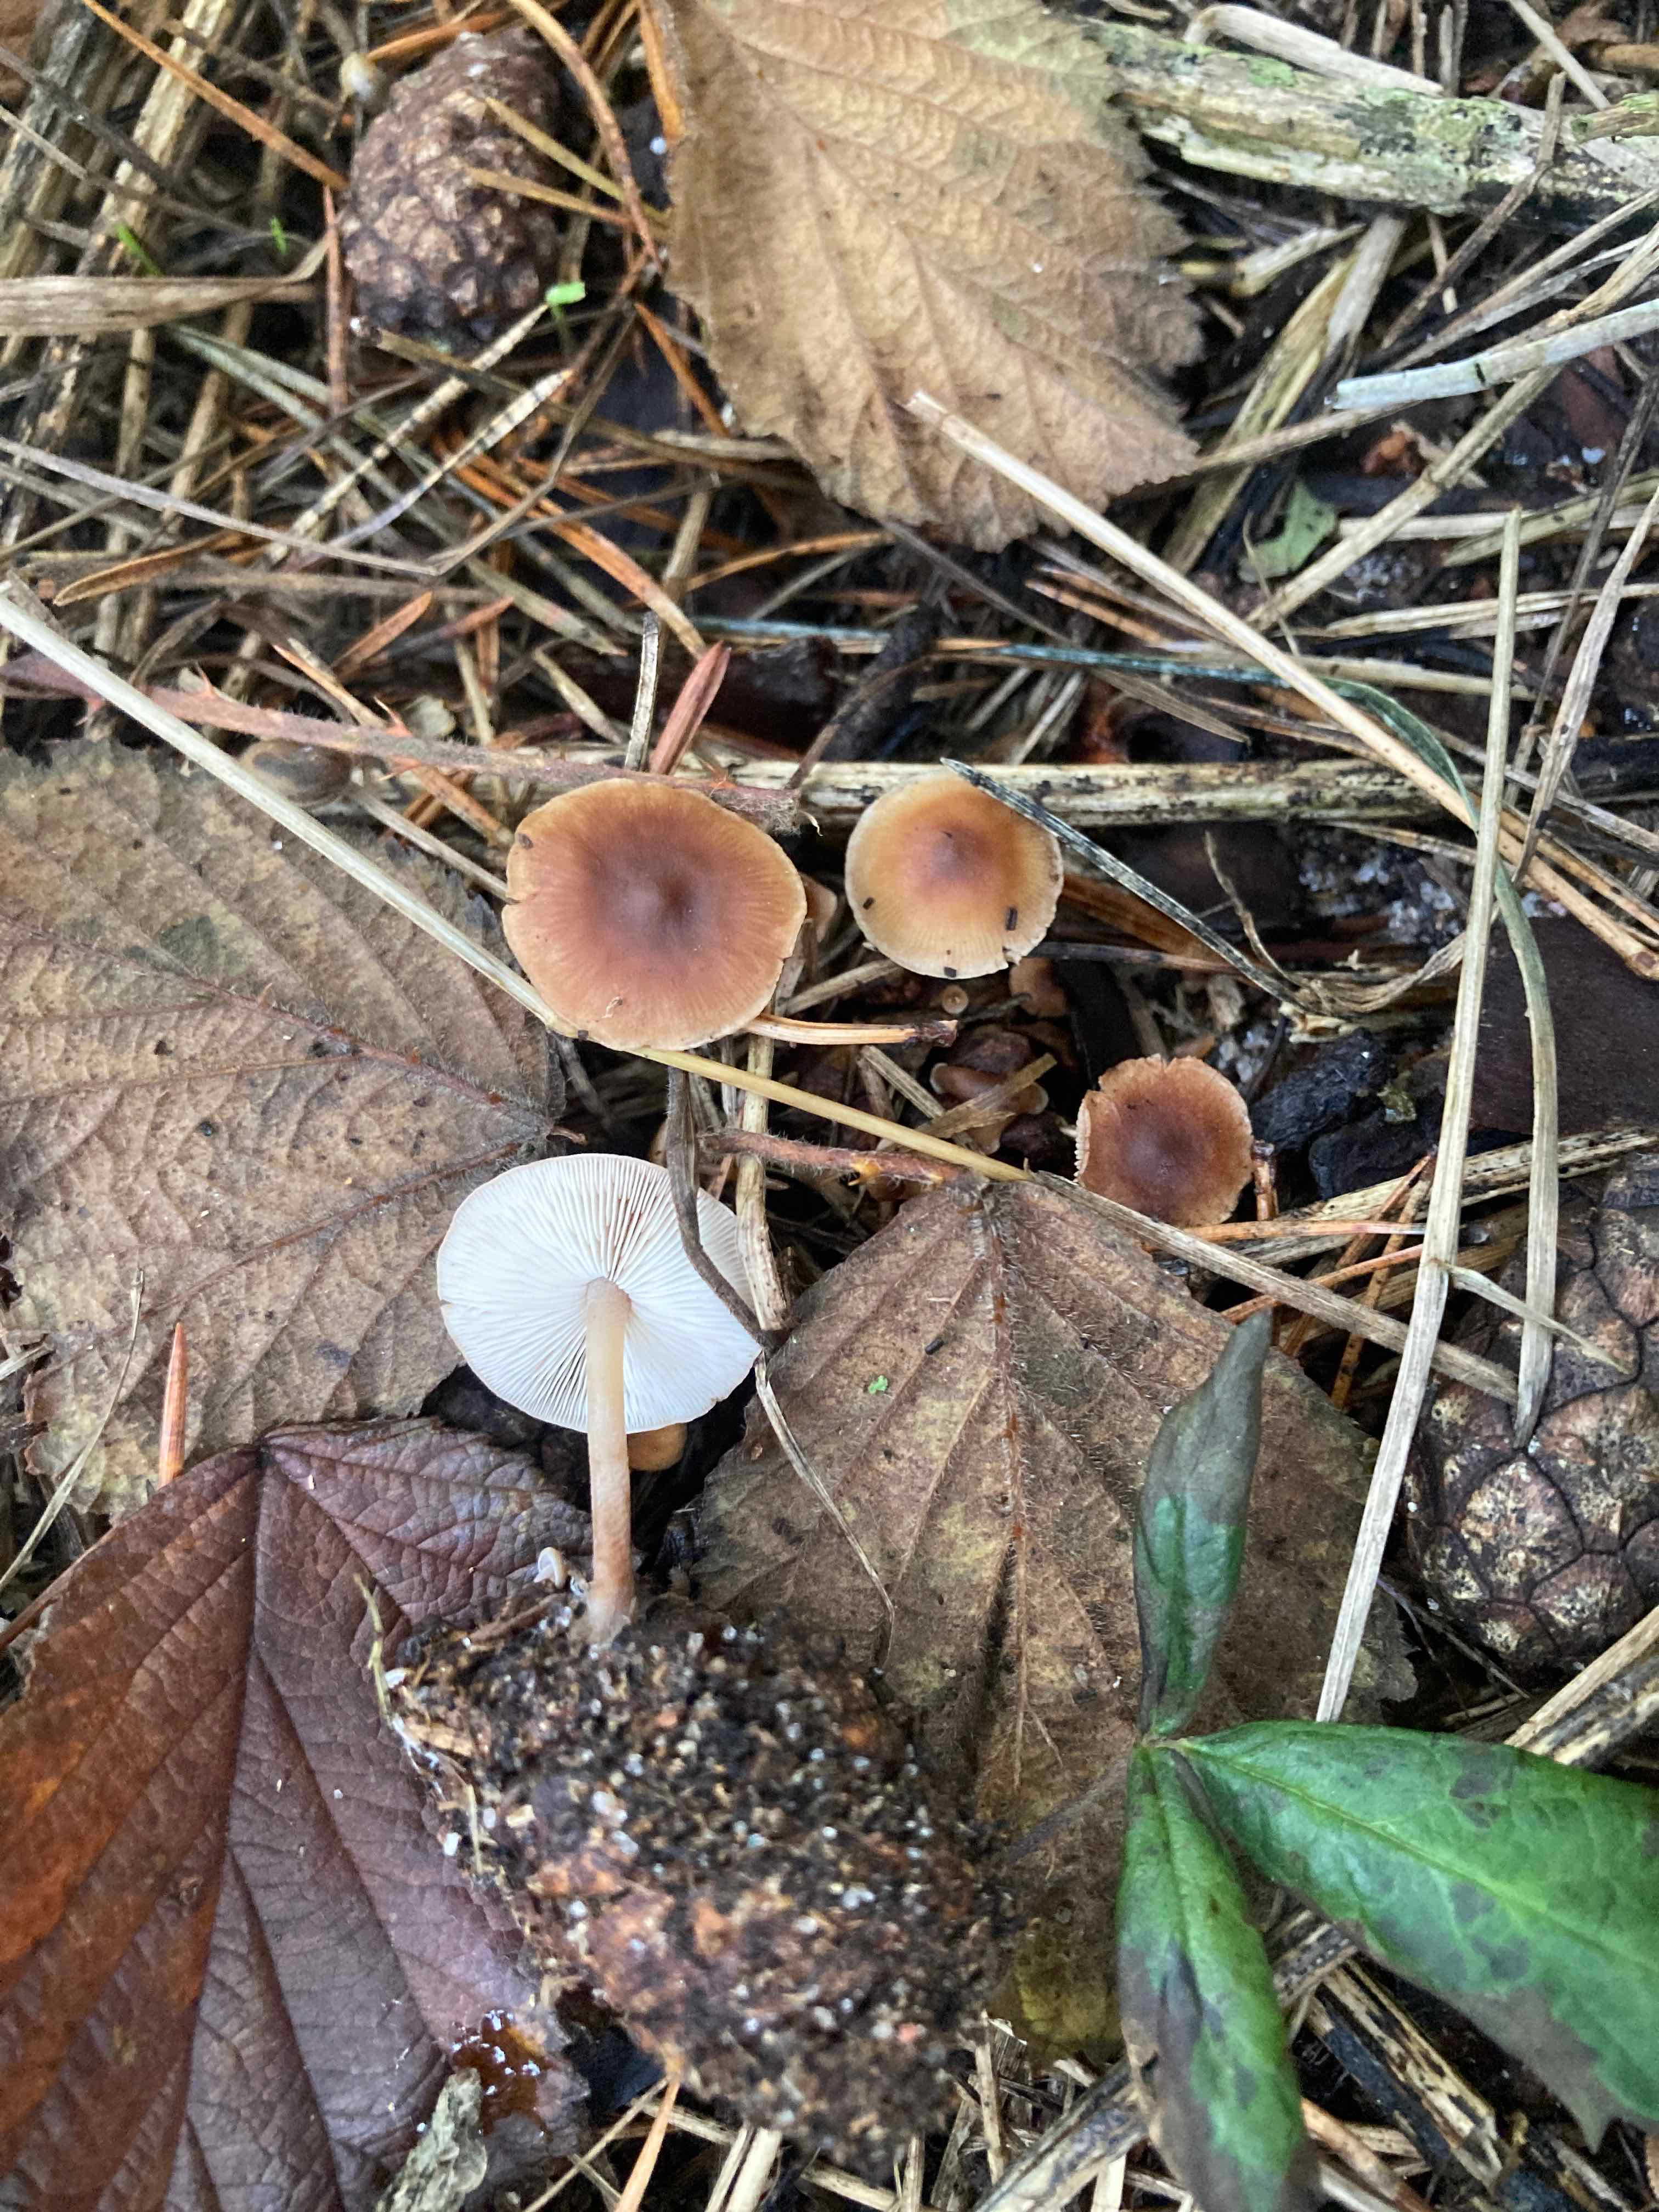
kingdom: Fungi
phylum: Basidiomycota
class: Agaricomycetes
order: Agaricales
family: Marasmiaceae
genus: Baeospora
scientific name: Baeospora myosura
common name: koglebruskhat
